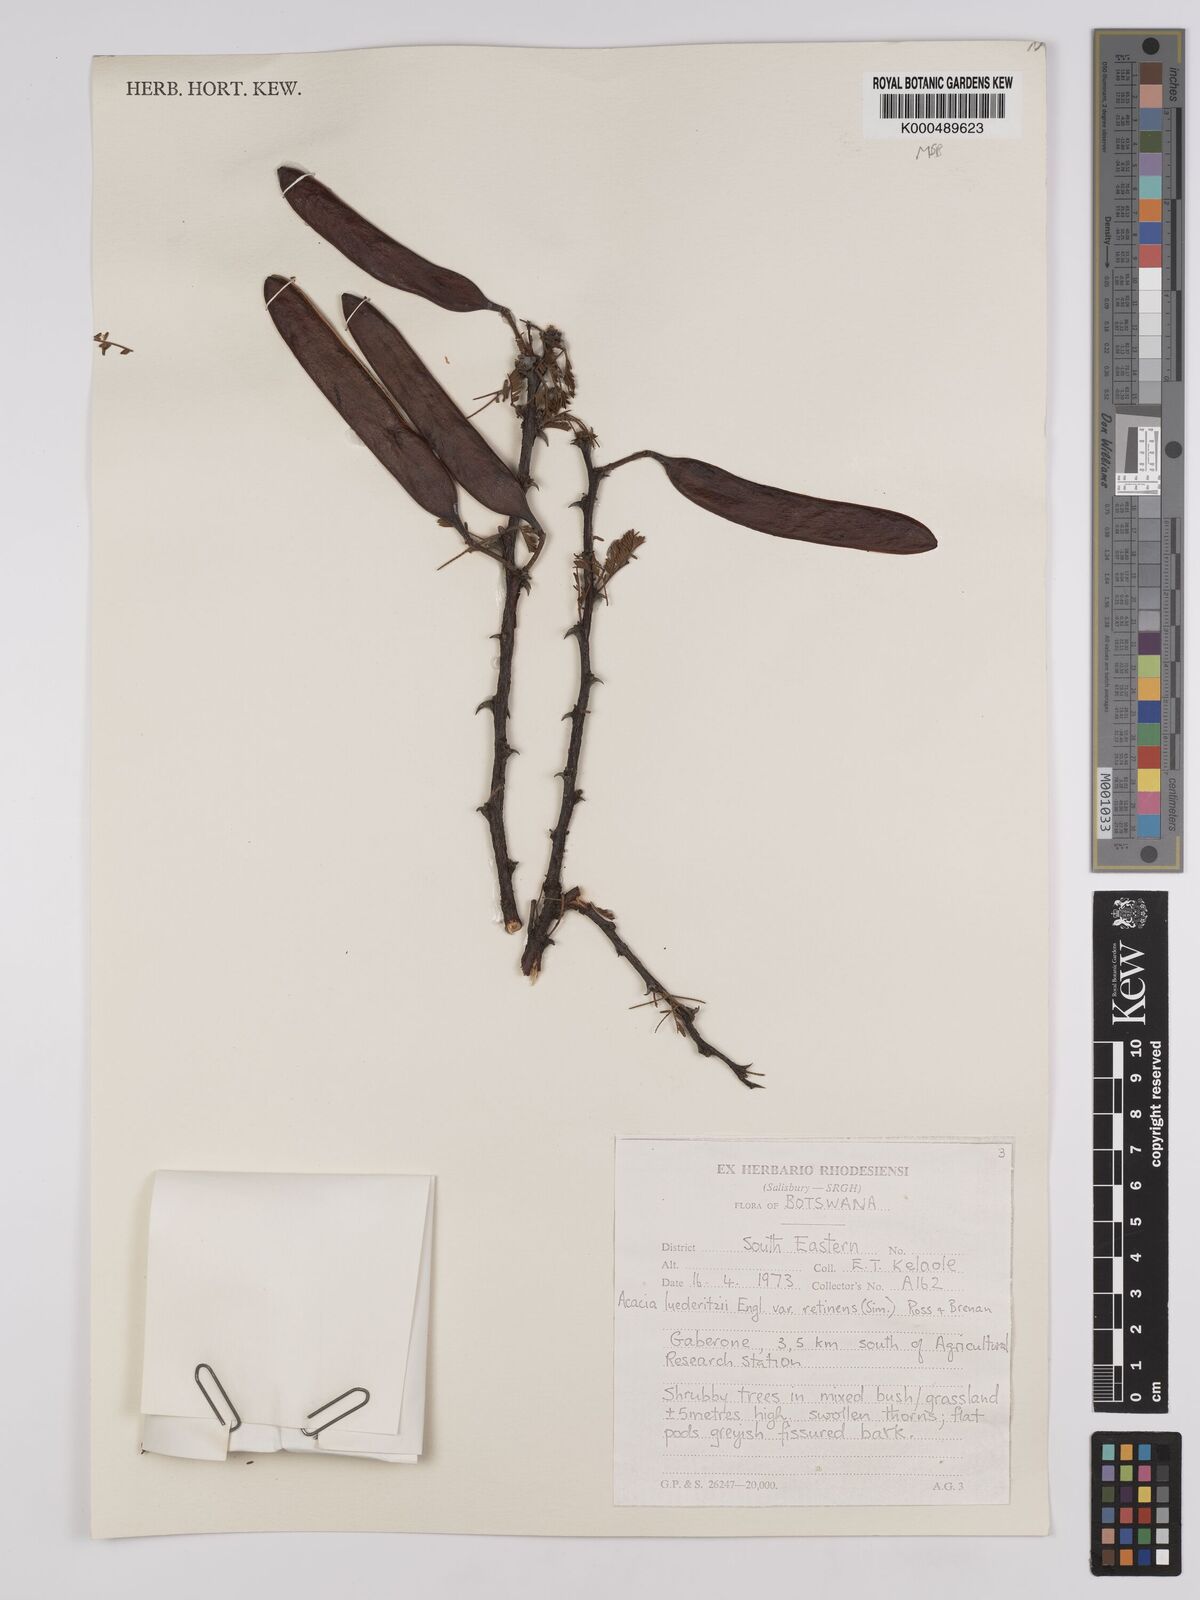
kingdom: Plantae
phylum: Tracheophyta
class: Magnoliopsida
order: Fabales
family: Fabaceae
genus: Vachellia
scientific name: Vachellia
